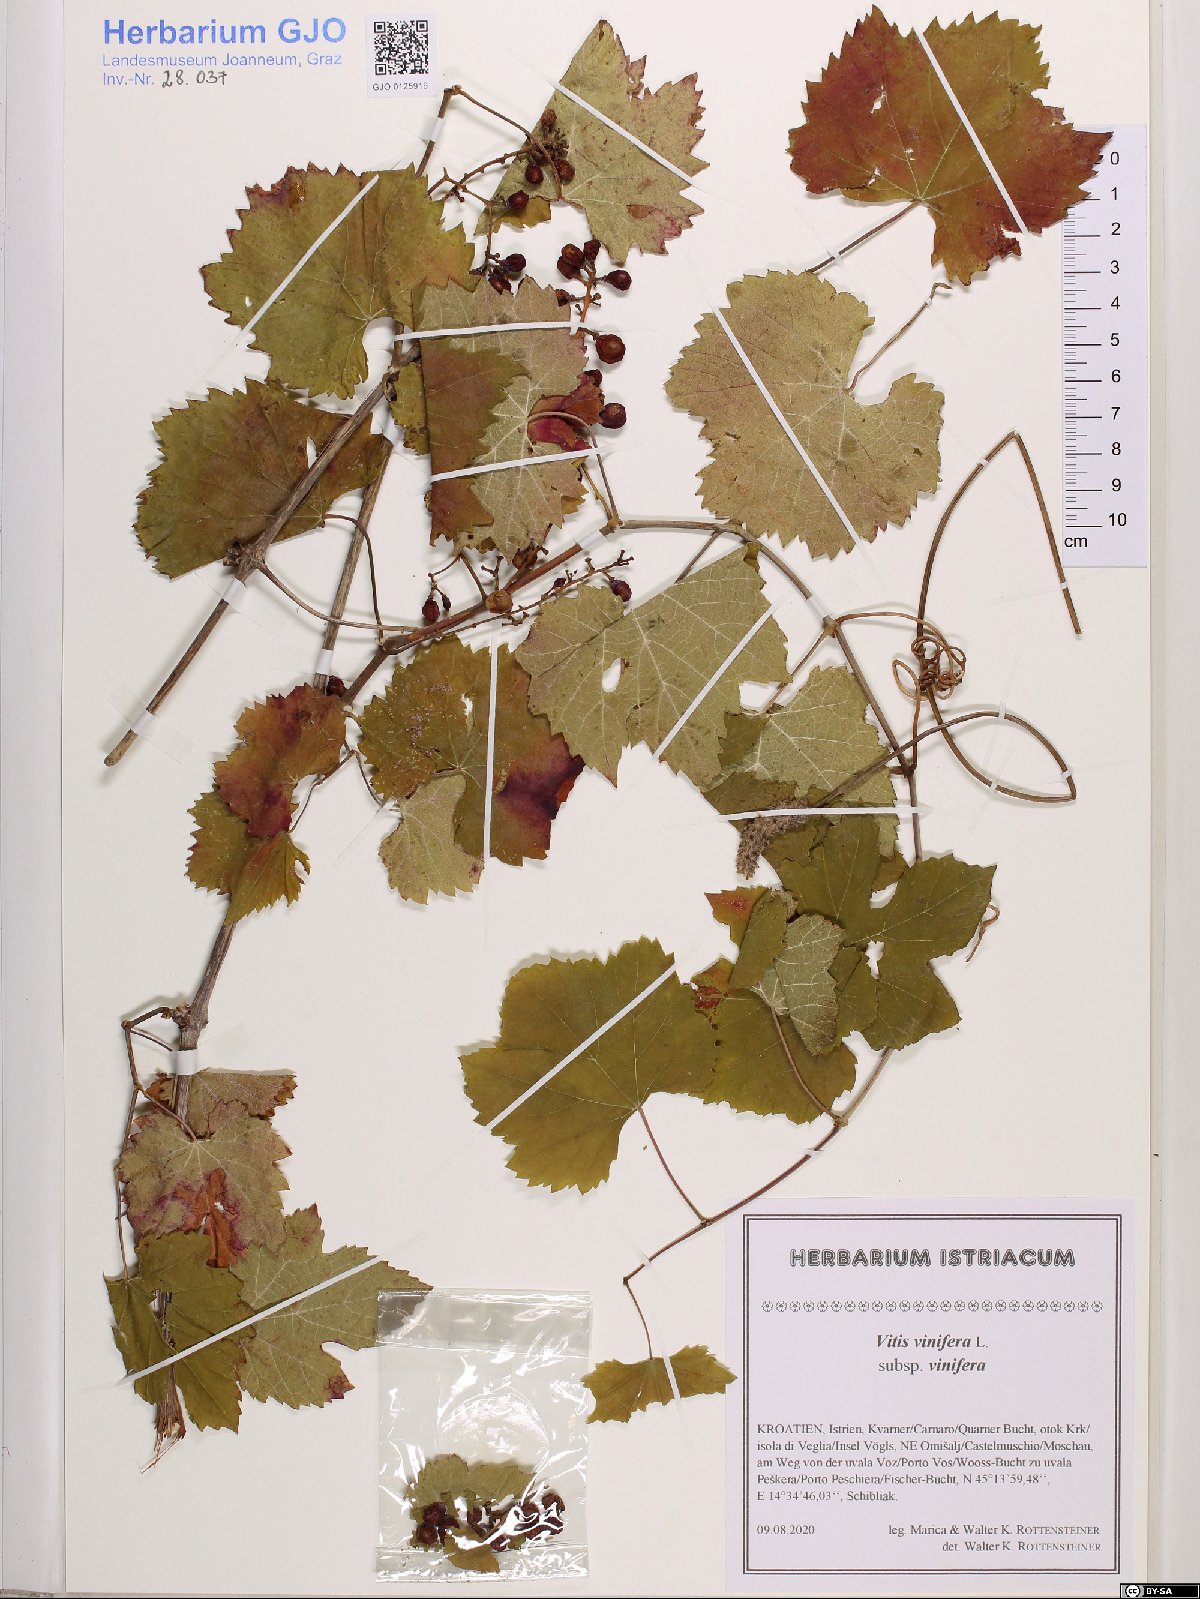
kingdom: Plantae
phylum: Tracheophyta
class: Magnoliopsida
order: Vitales
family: Vitaceae
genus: Vitis
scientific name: Vitis vinifera
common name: Grape-vine
